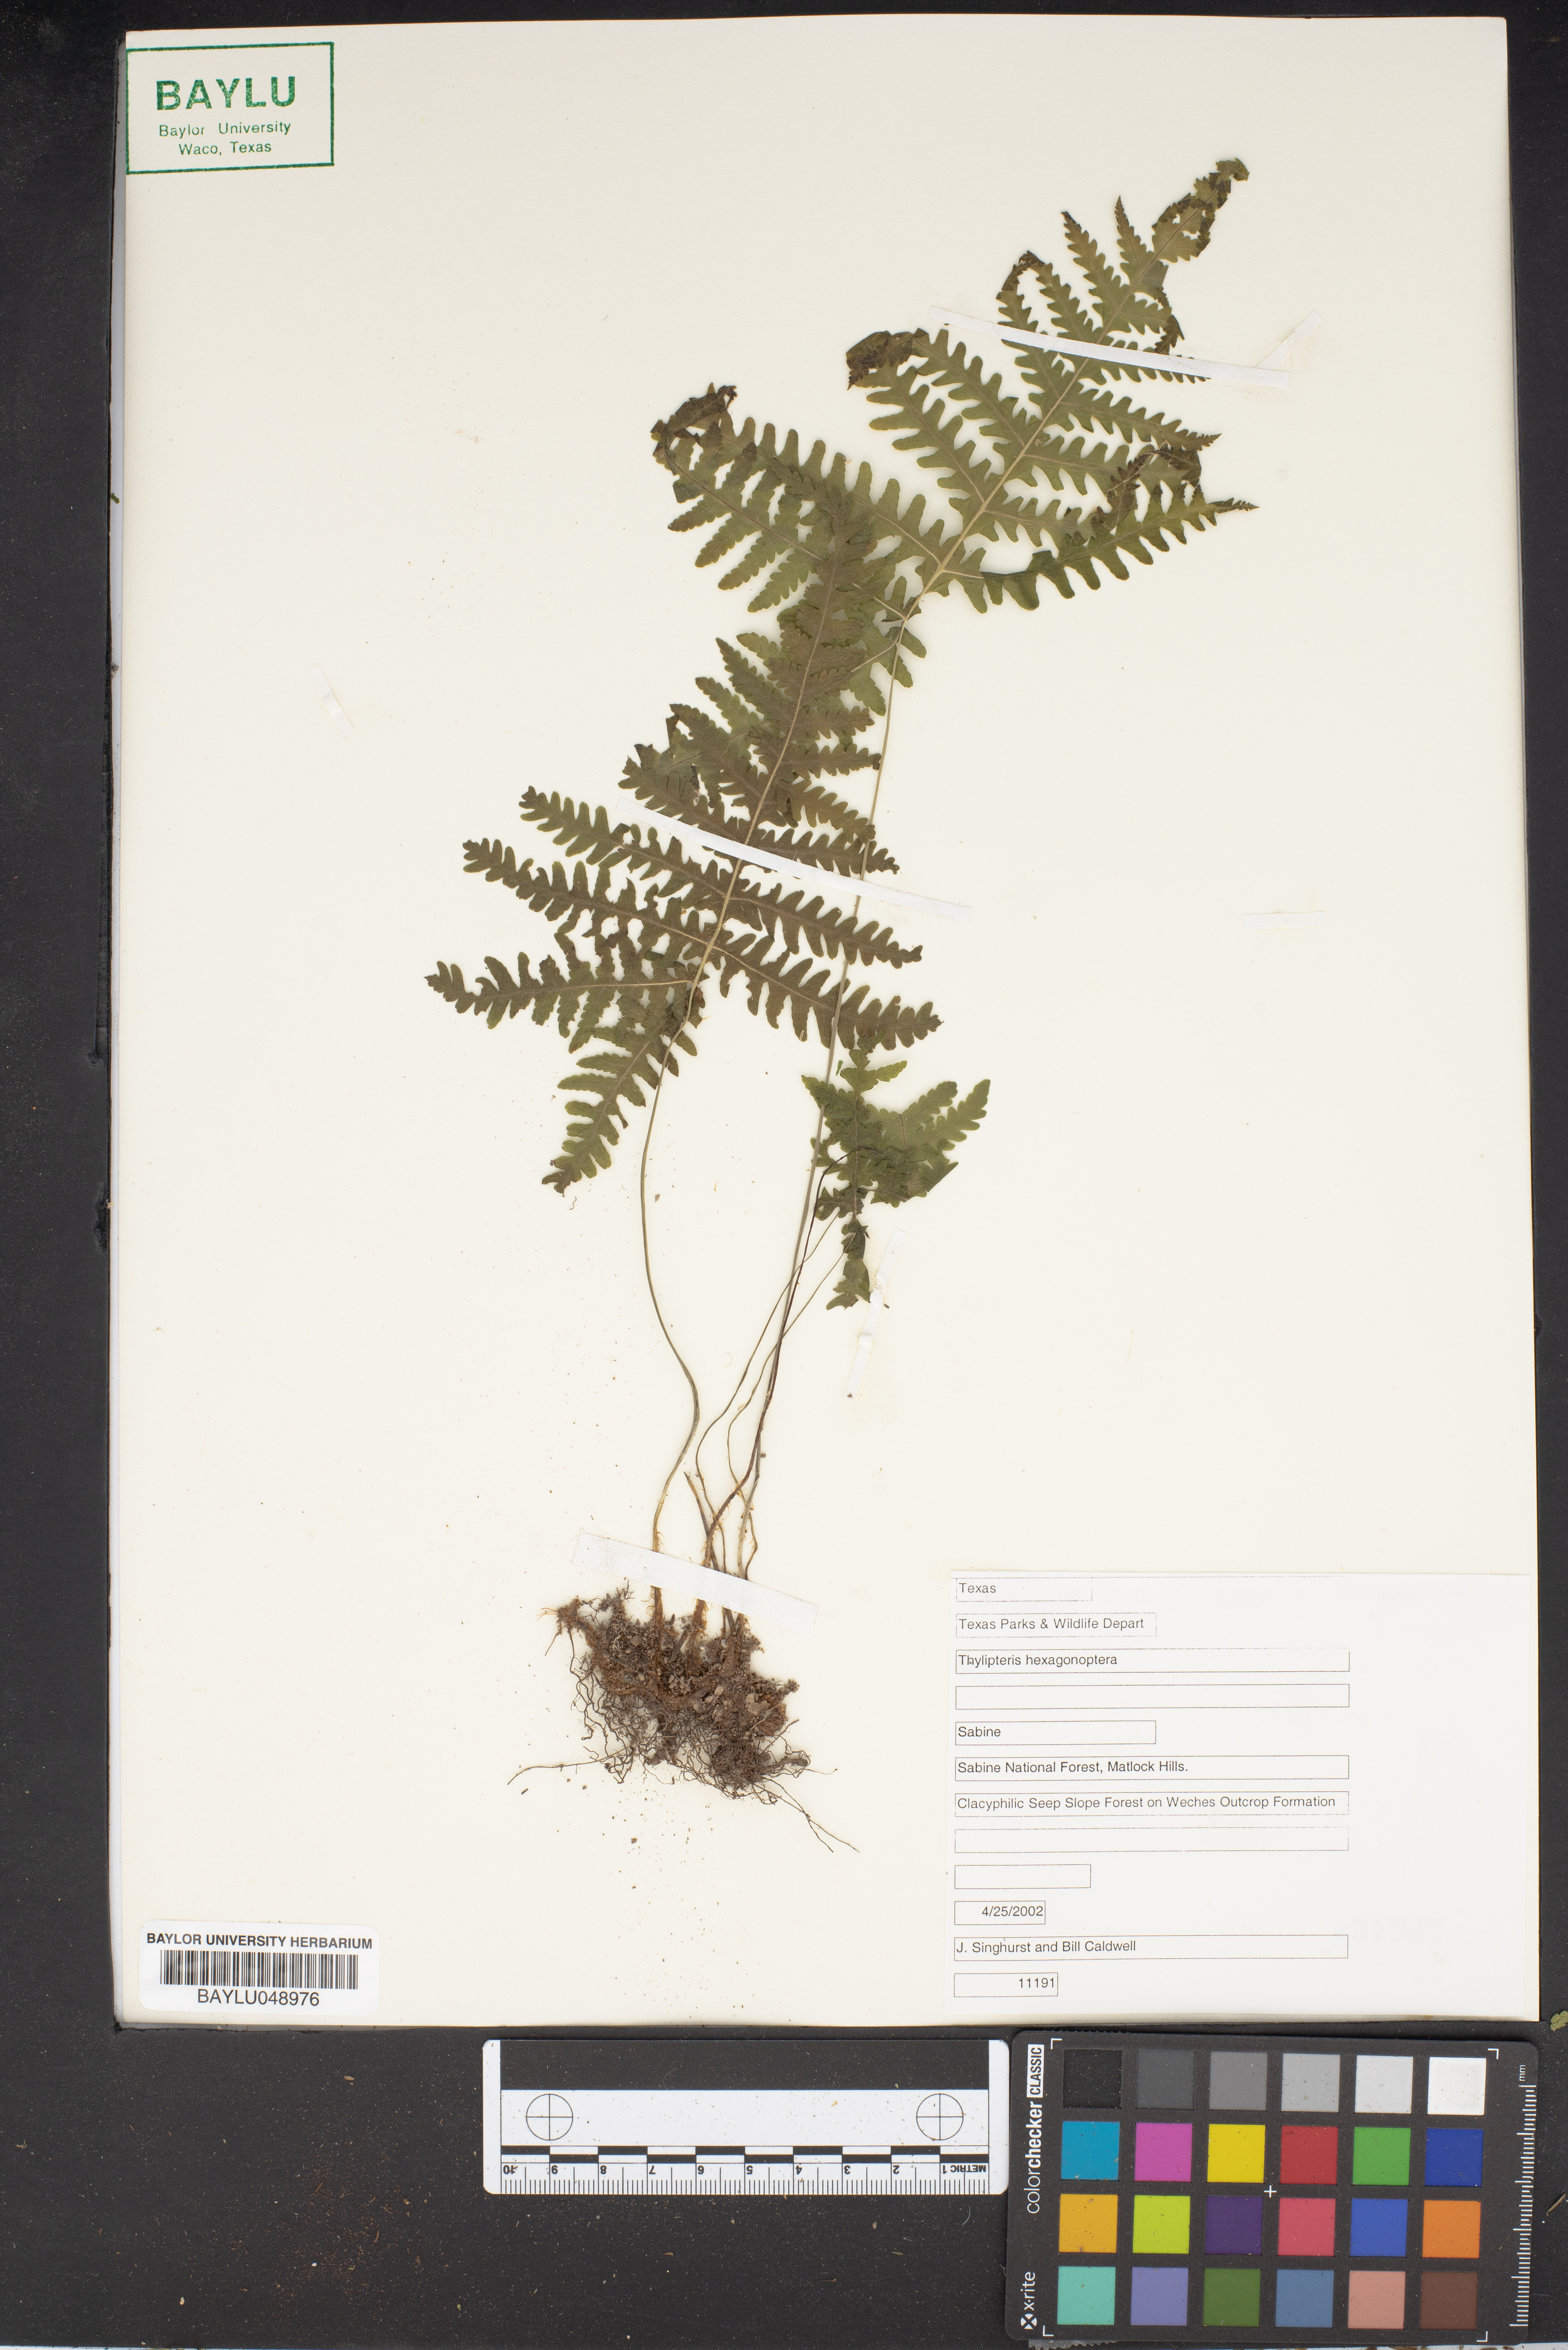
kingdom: Plantae
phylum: Tracheophyta
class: Polypodiopsida
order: Polypodiales
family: Thelypteridaceae
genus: Phegopteris
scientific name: Phegopteris hexagonoptera
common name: Broad beech fern
